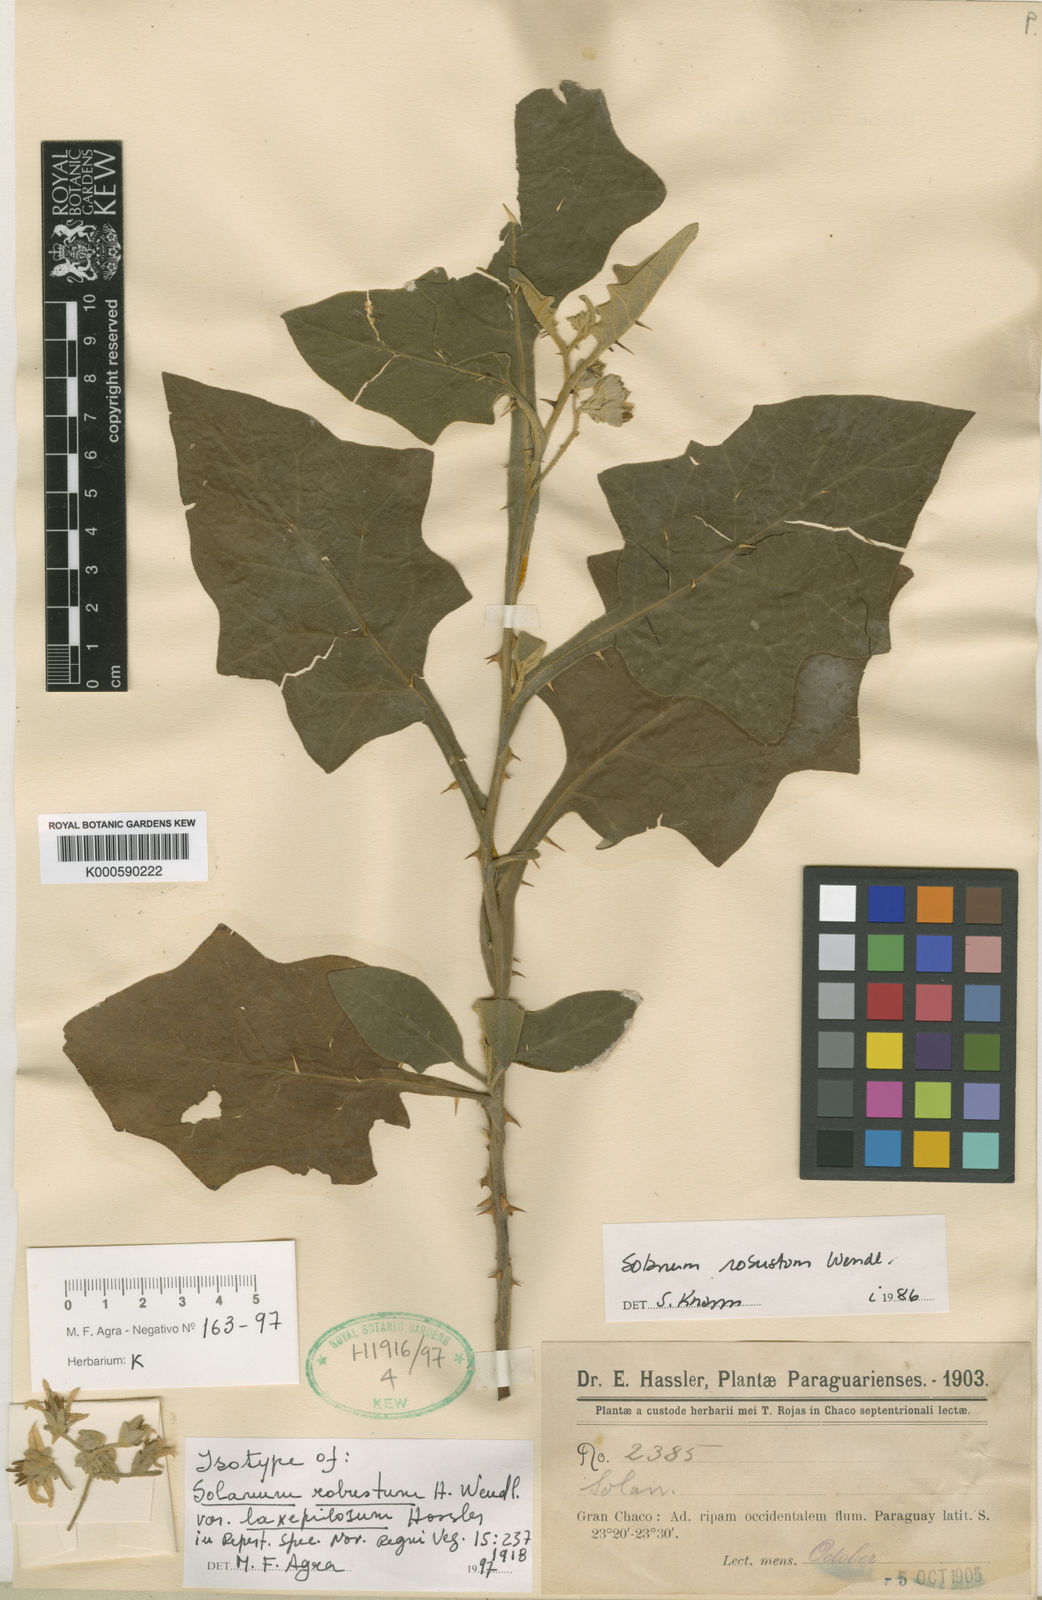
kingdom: Plantae
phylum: Tracheophyta
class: Magnoliopsida
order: Solanales
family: Solanaceae
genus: Solanum
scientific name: Solanum robustum
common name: Shrubby nightshade
